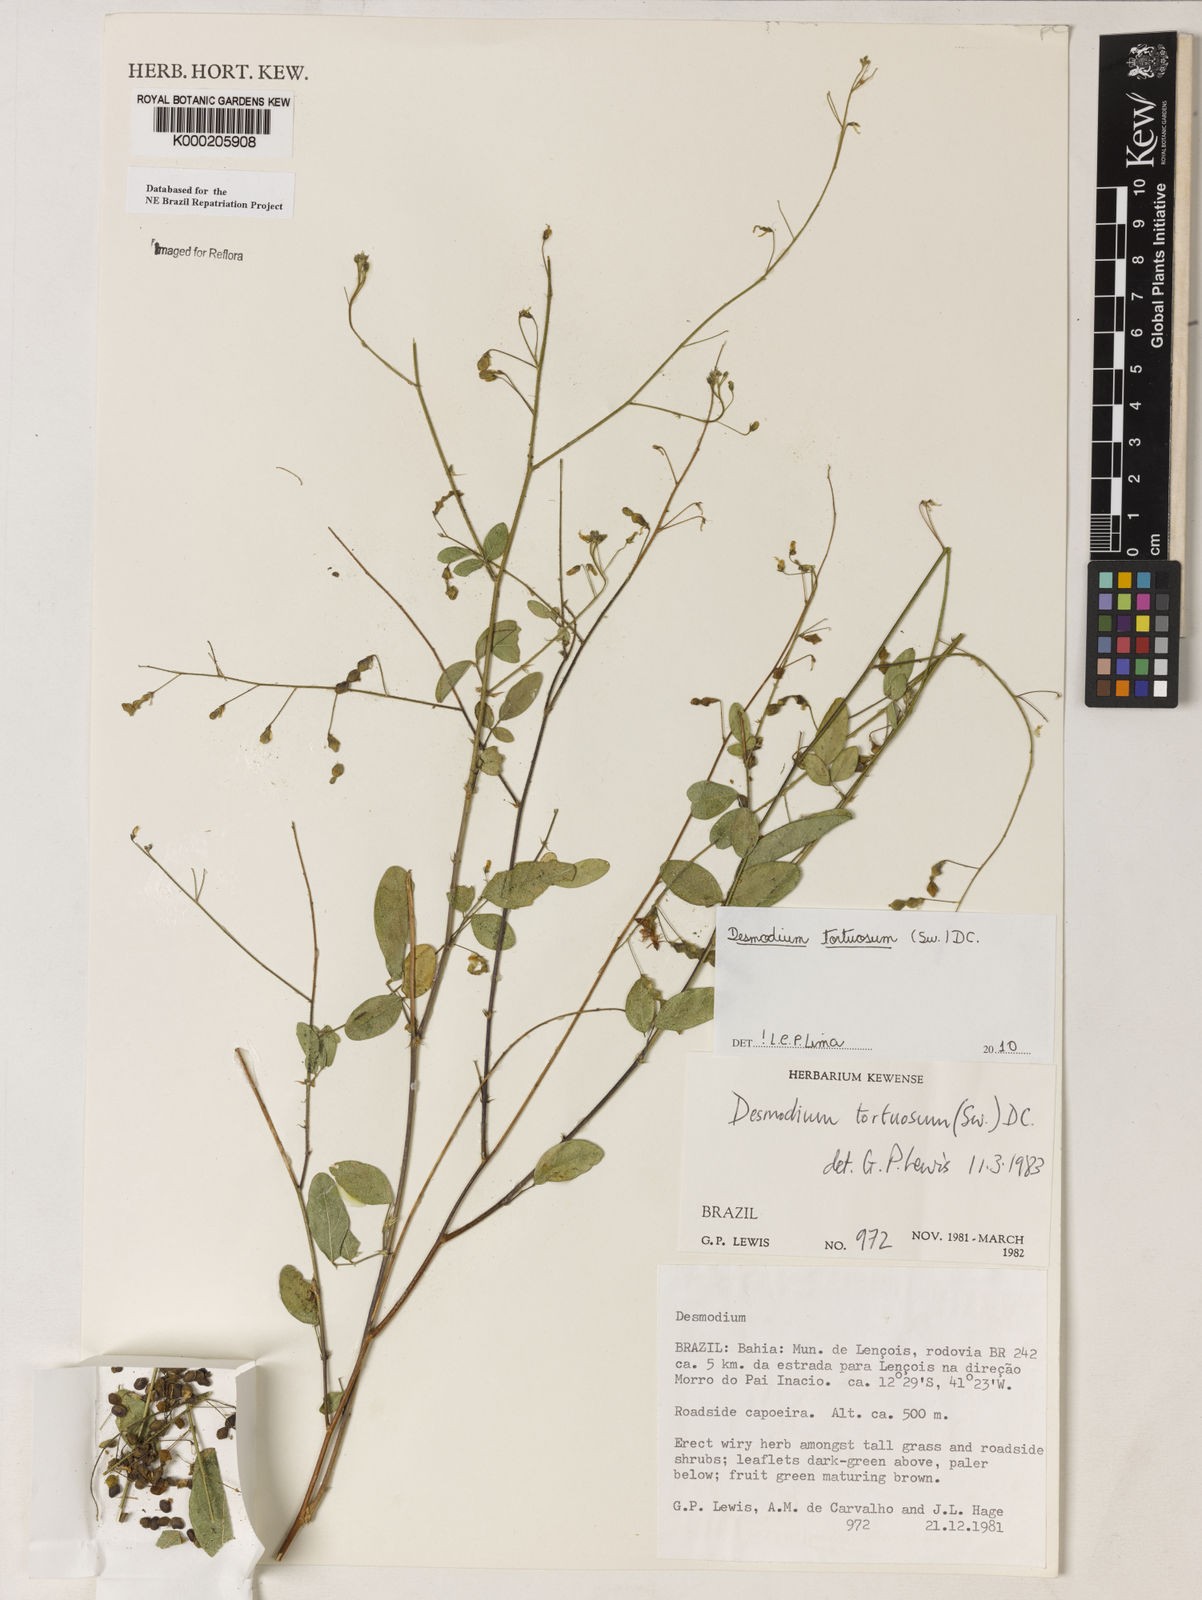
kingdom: Plantae
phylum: Tracheophyta
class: Magnoliopsida
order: Fabales
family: Fabaceae
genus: Desmodium
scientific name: Desmodium tortuosum
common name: Dixie ticktrefoil
